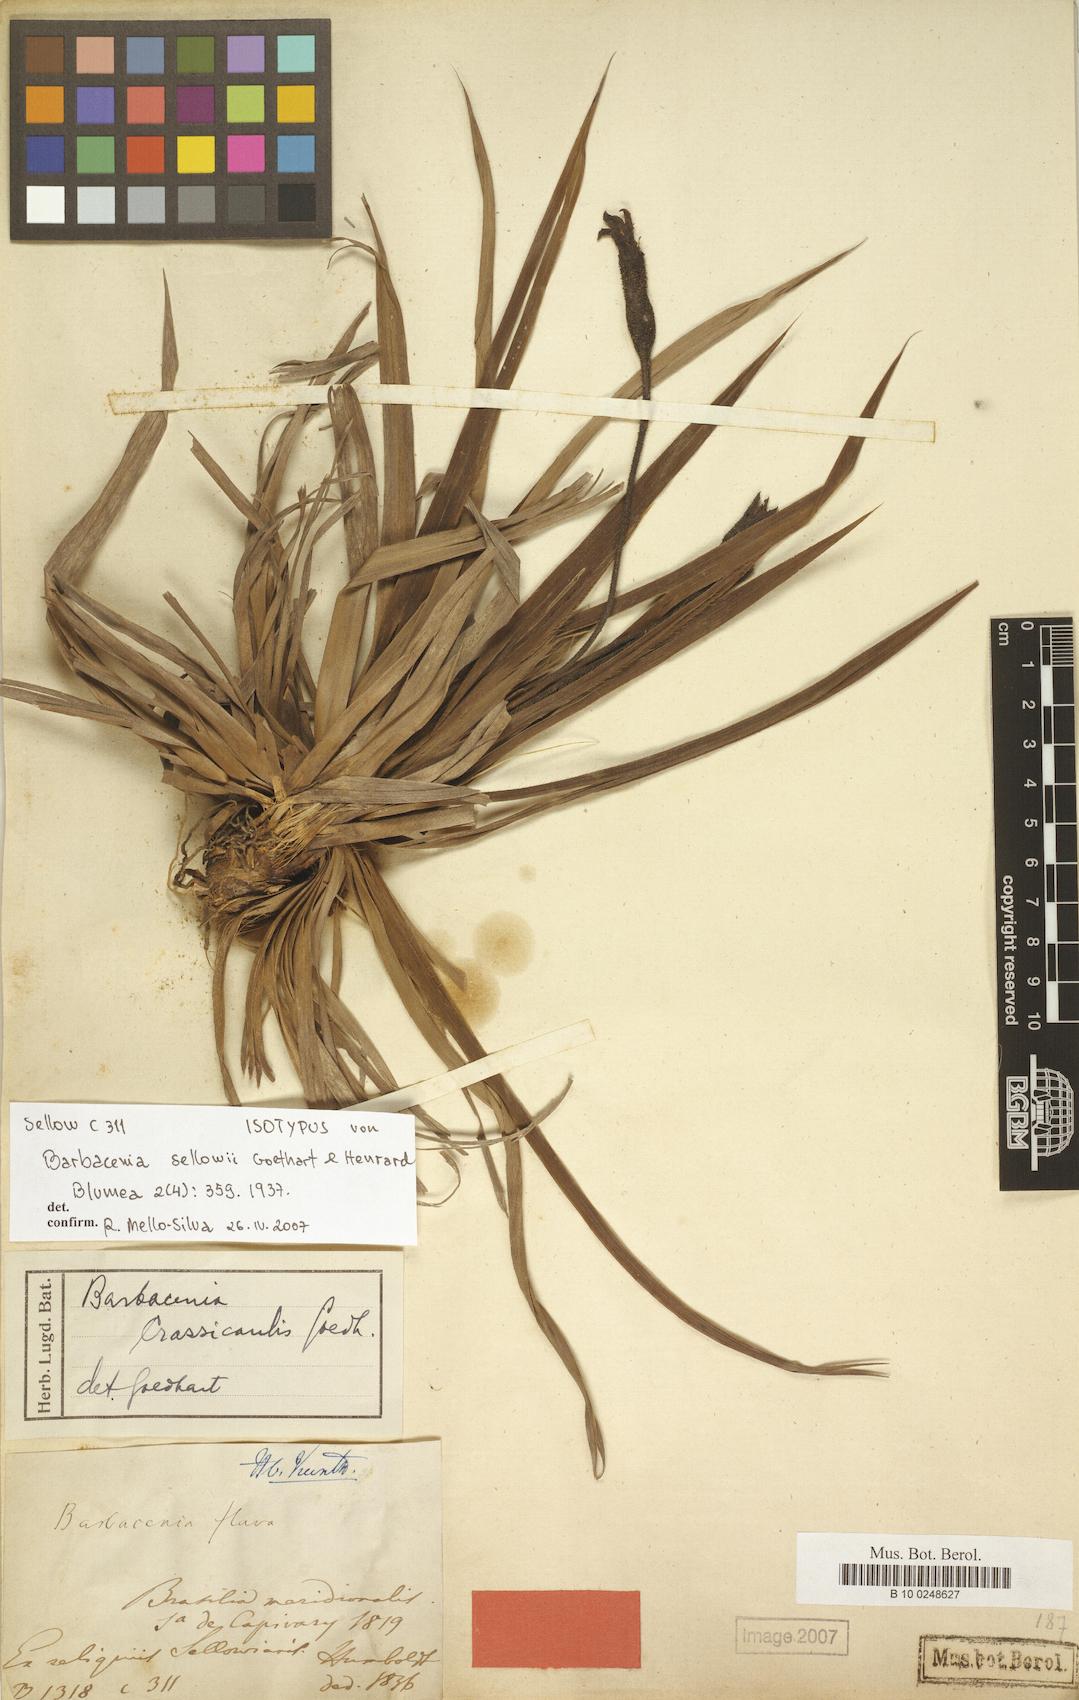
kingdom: Plantae
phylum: Tracheophyta
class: Liliopsida
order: Pandanales
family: Velloziaceae
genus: Barbacenia
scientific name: Barbacenia flava
